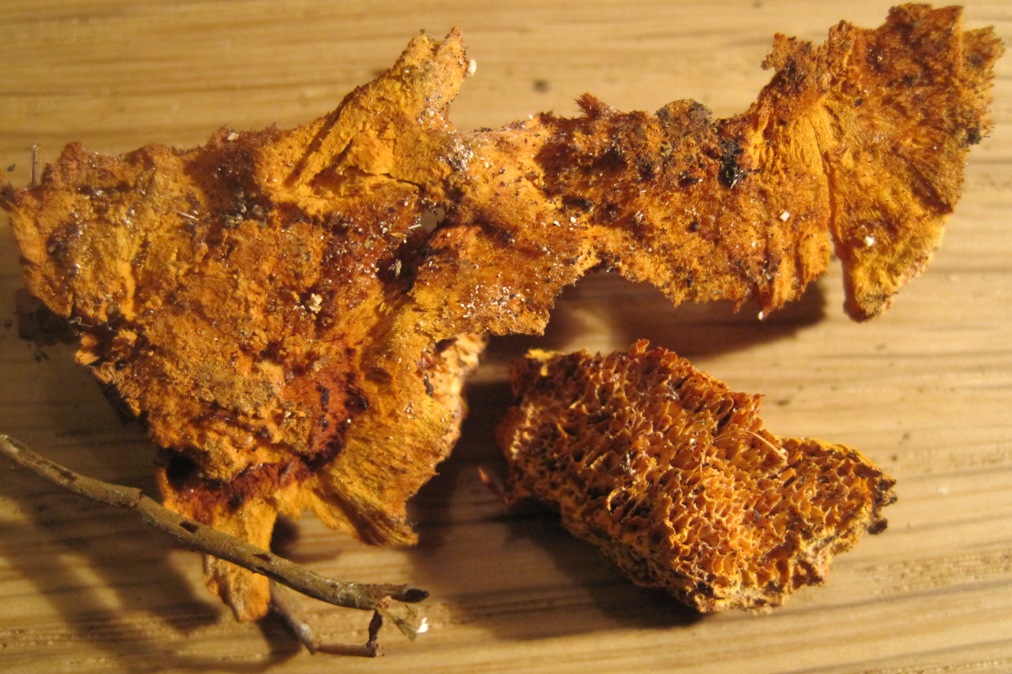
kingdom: Fungi
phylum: Basidiomycota
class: Agaricomycetes
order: Polyporales
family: Polyporaceae
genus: Lentinus
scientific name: Lentinus brumalis
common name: vinter-stilkporesvamp
